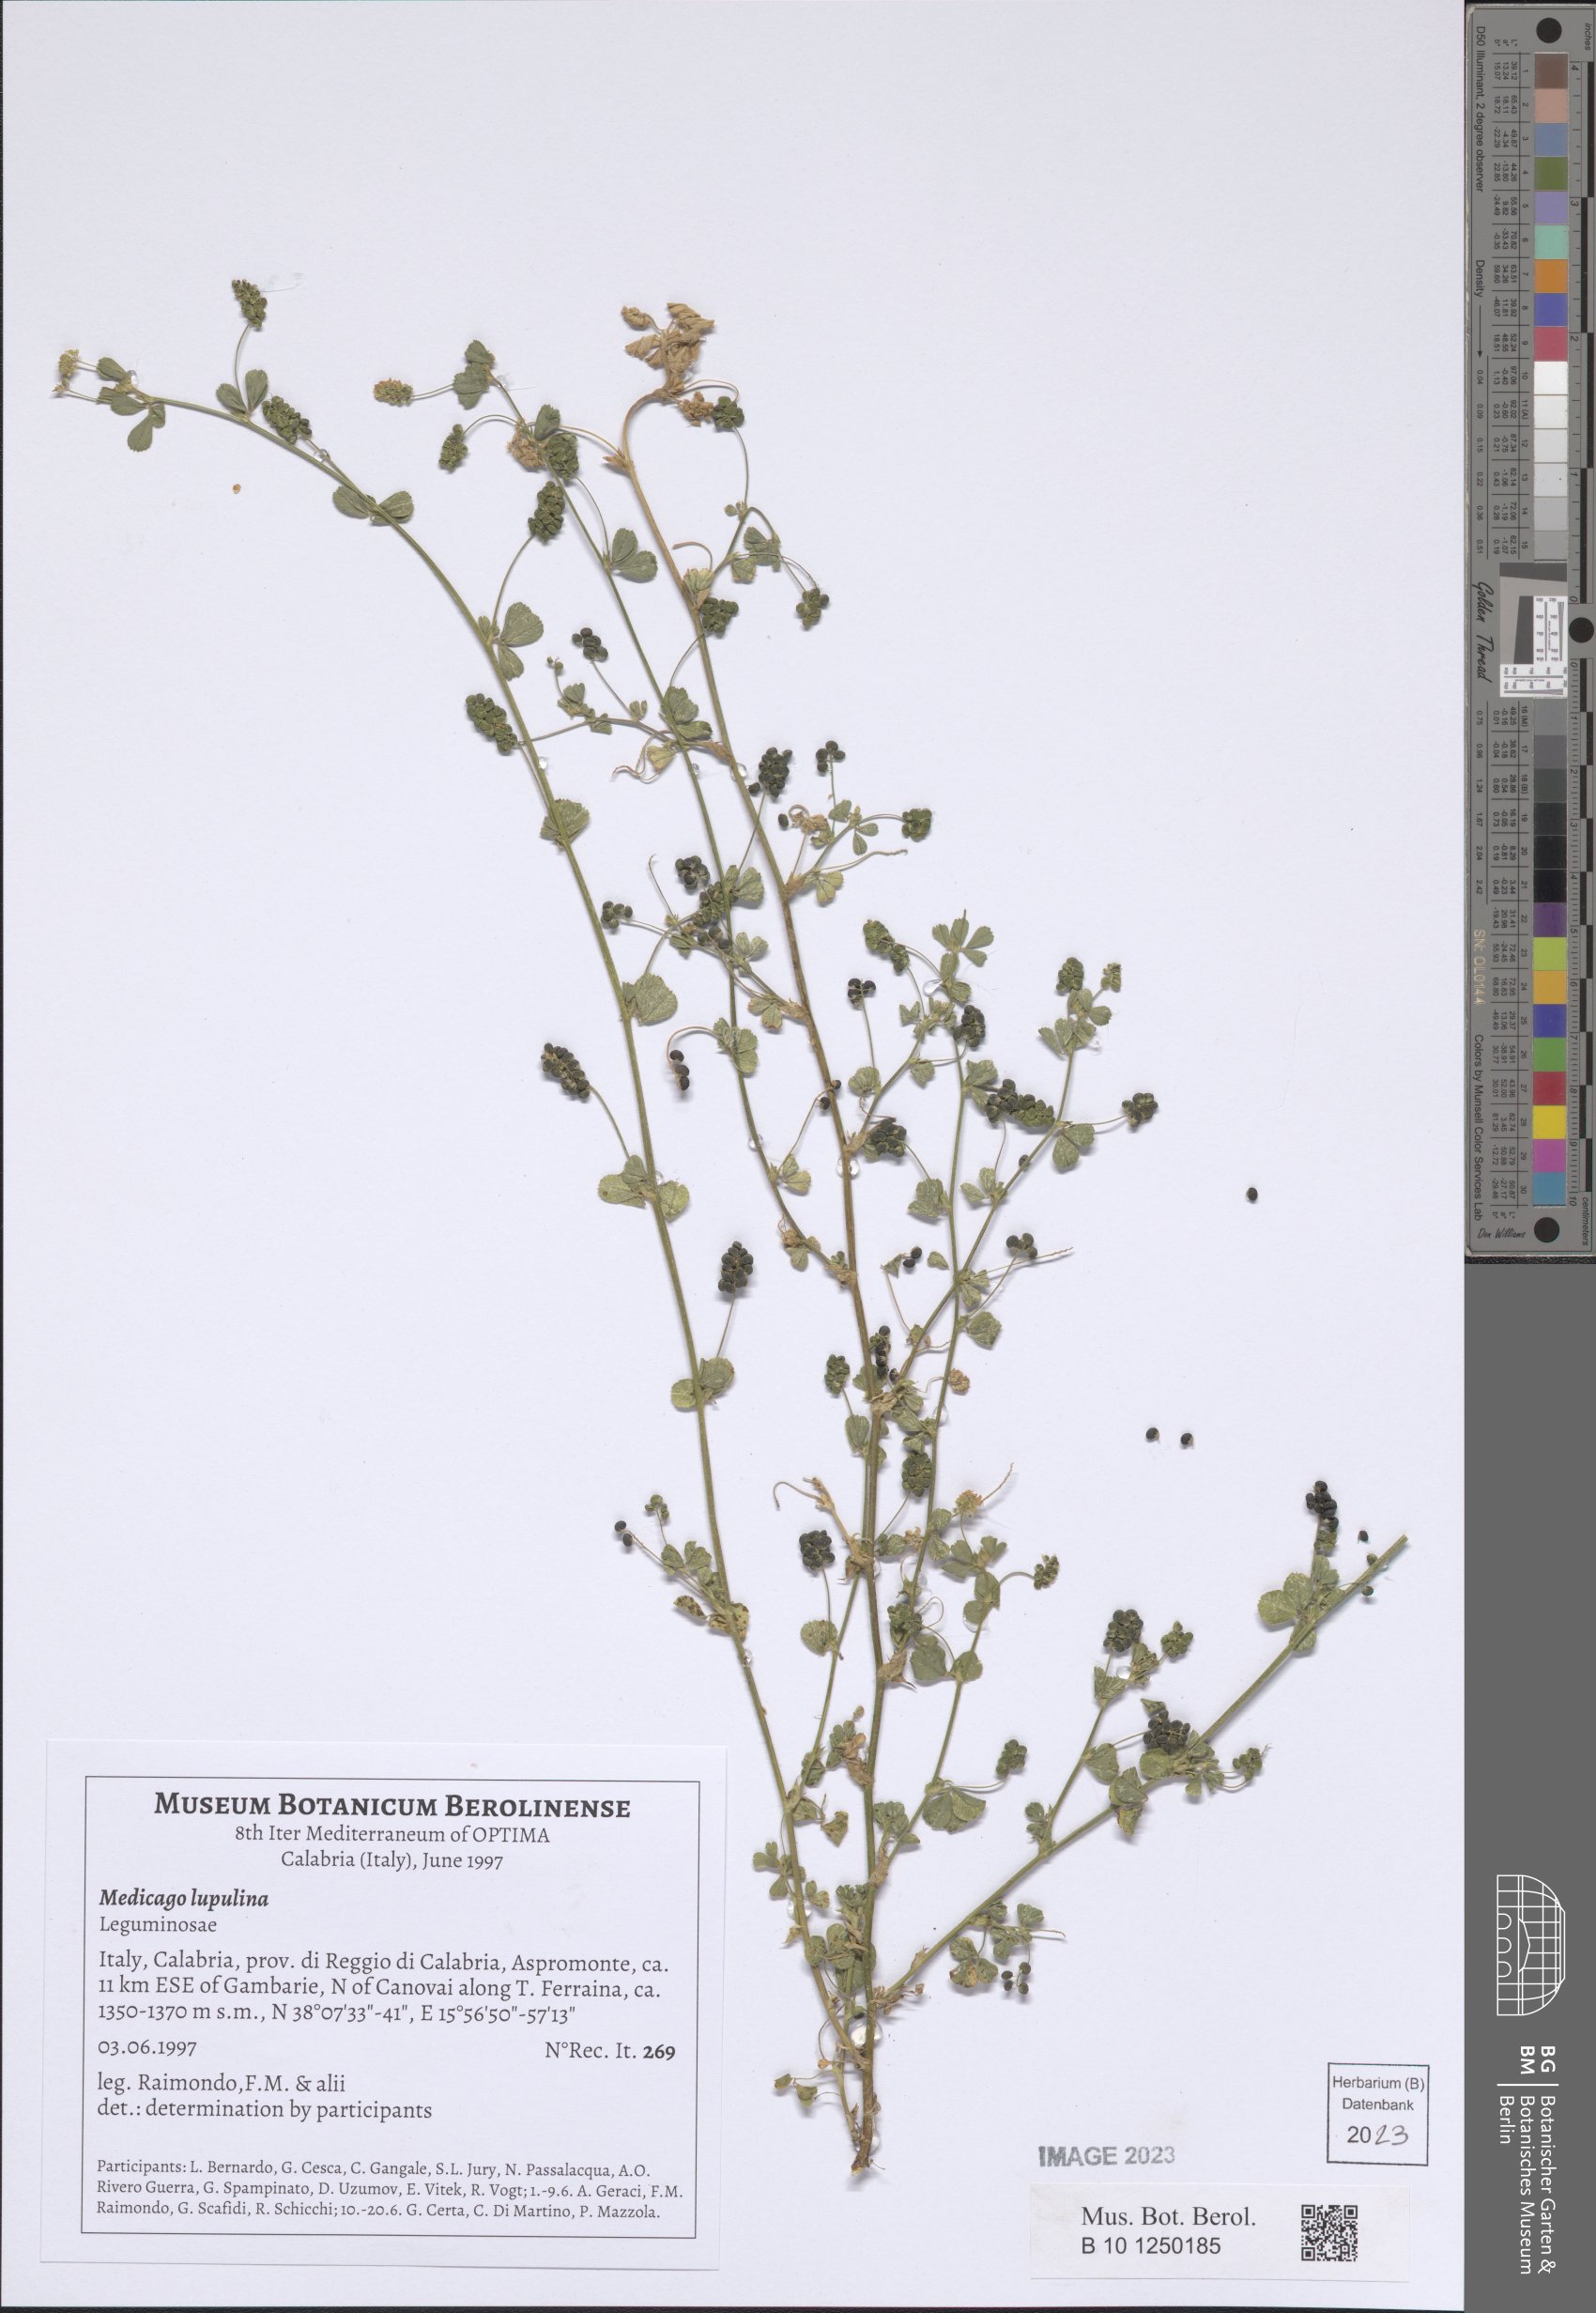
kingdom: Plantae
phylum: Tracheophyta
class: Magnoliopsida
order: Fabales
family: Fabaceae
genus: Medicago
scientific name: Medicago lupulina
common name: Black medick
